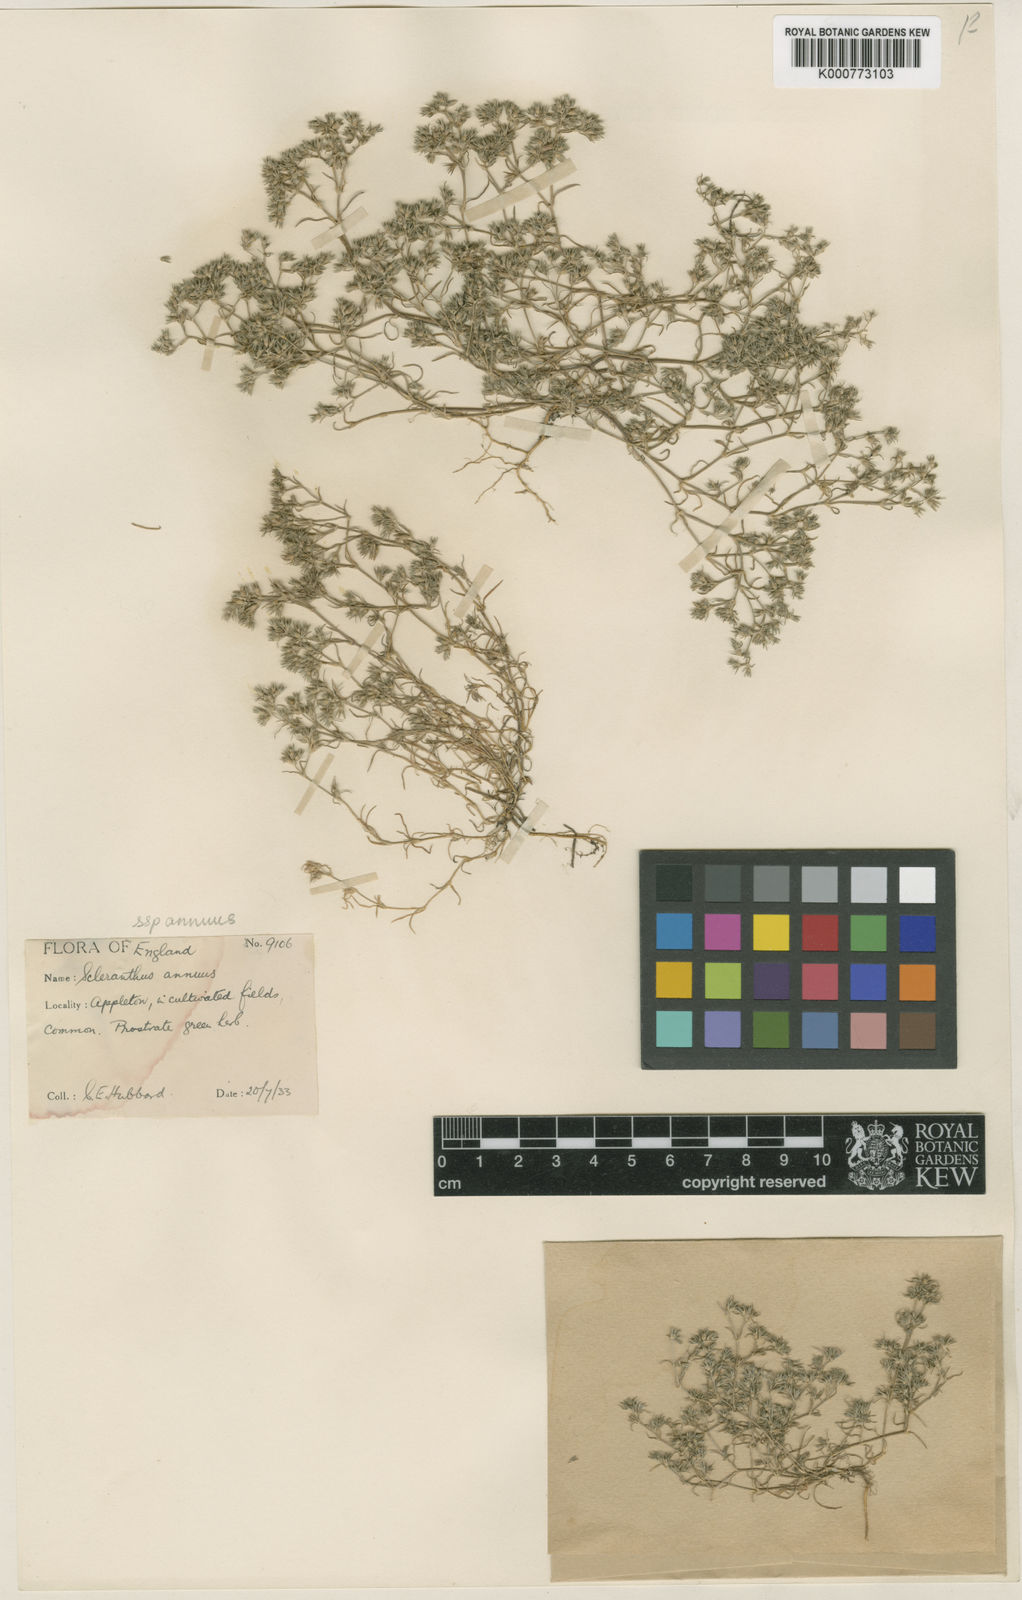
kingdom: Plantae
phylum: Tracheophyta
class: Magnoliopsida
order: Caryophyllales
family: Caryophyllaceae
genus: Scleranthus
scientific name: Scleranthus annuus
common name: Annual knawel
